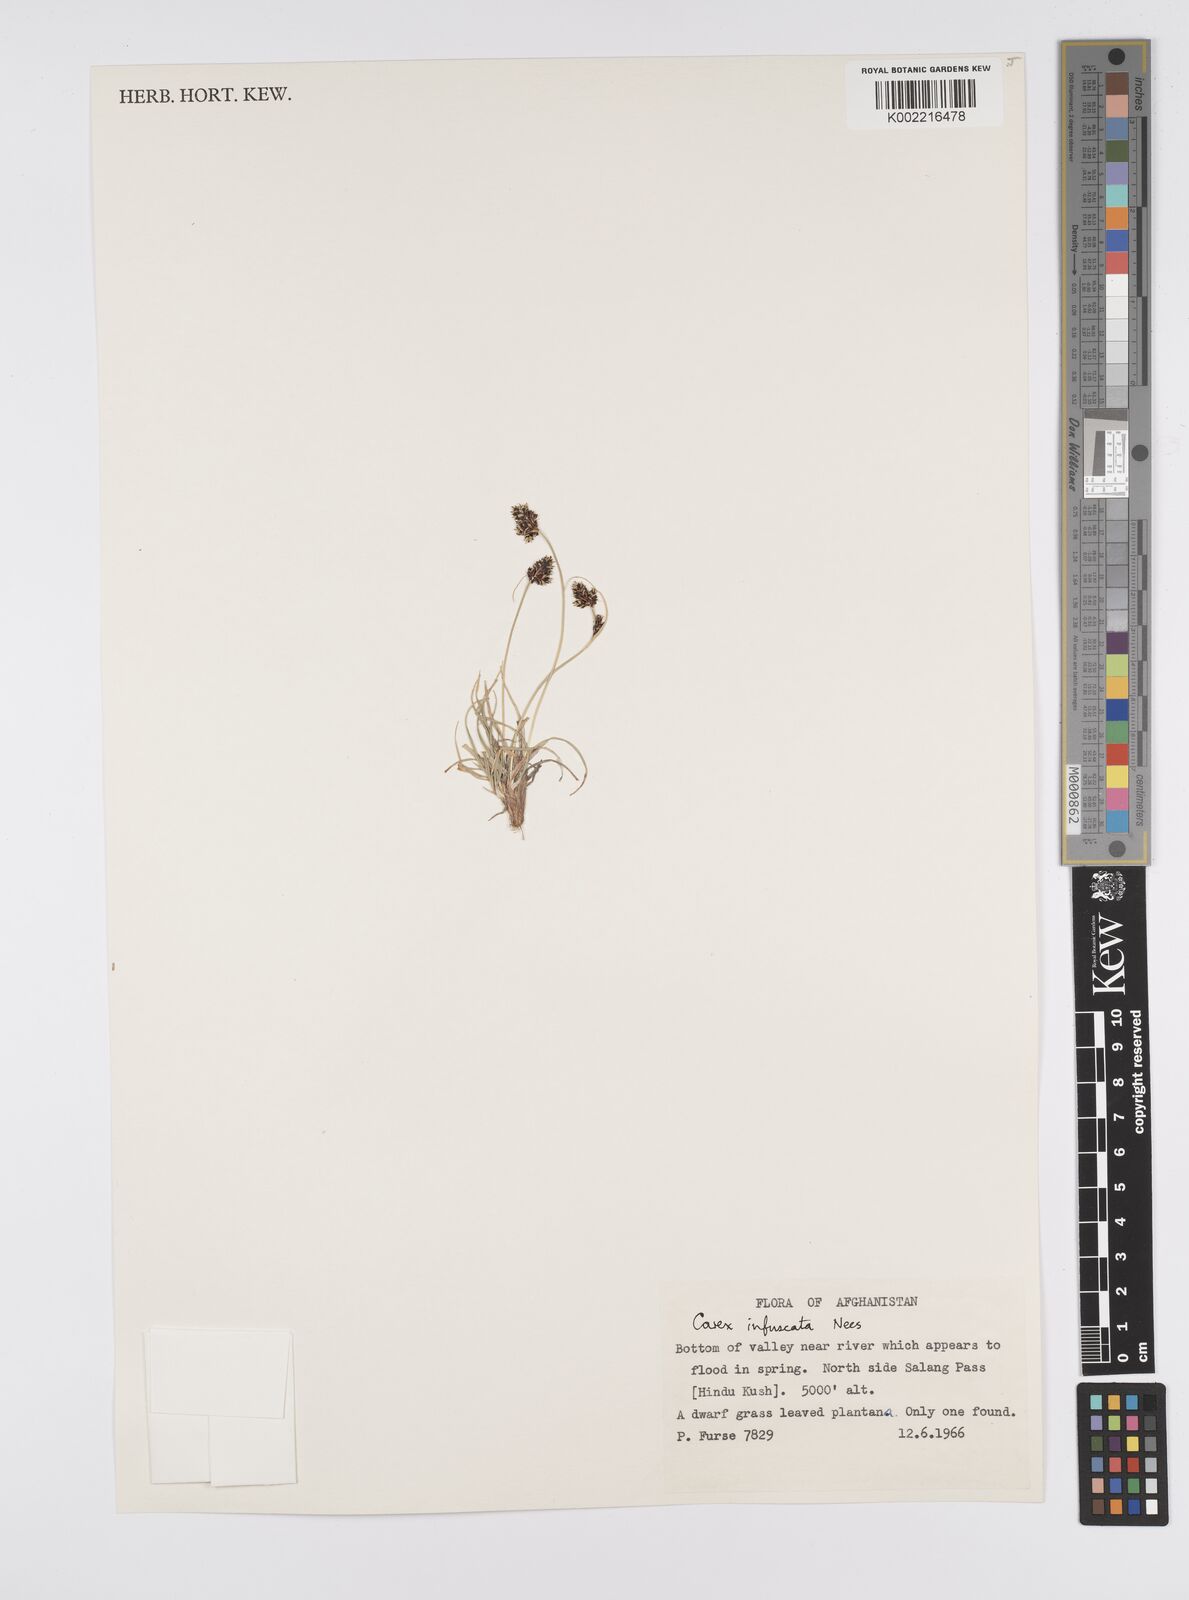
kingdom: Plantae
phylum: Tracheophyta
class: Liliopsida
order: Poales
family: Cyperaceae
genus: Carex
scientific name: Carex infuscata
